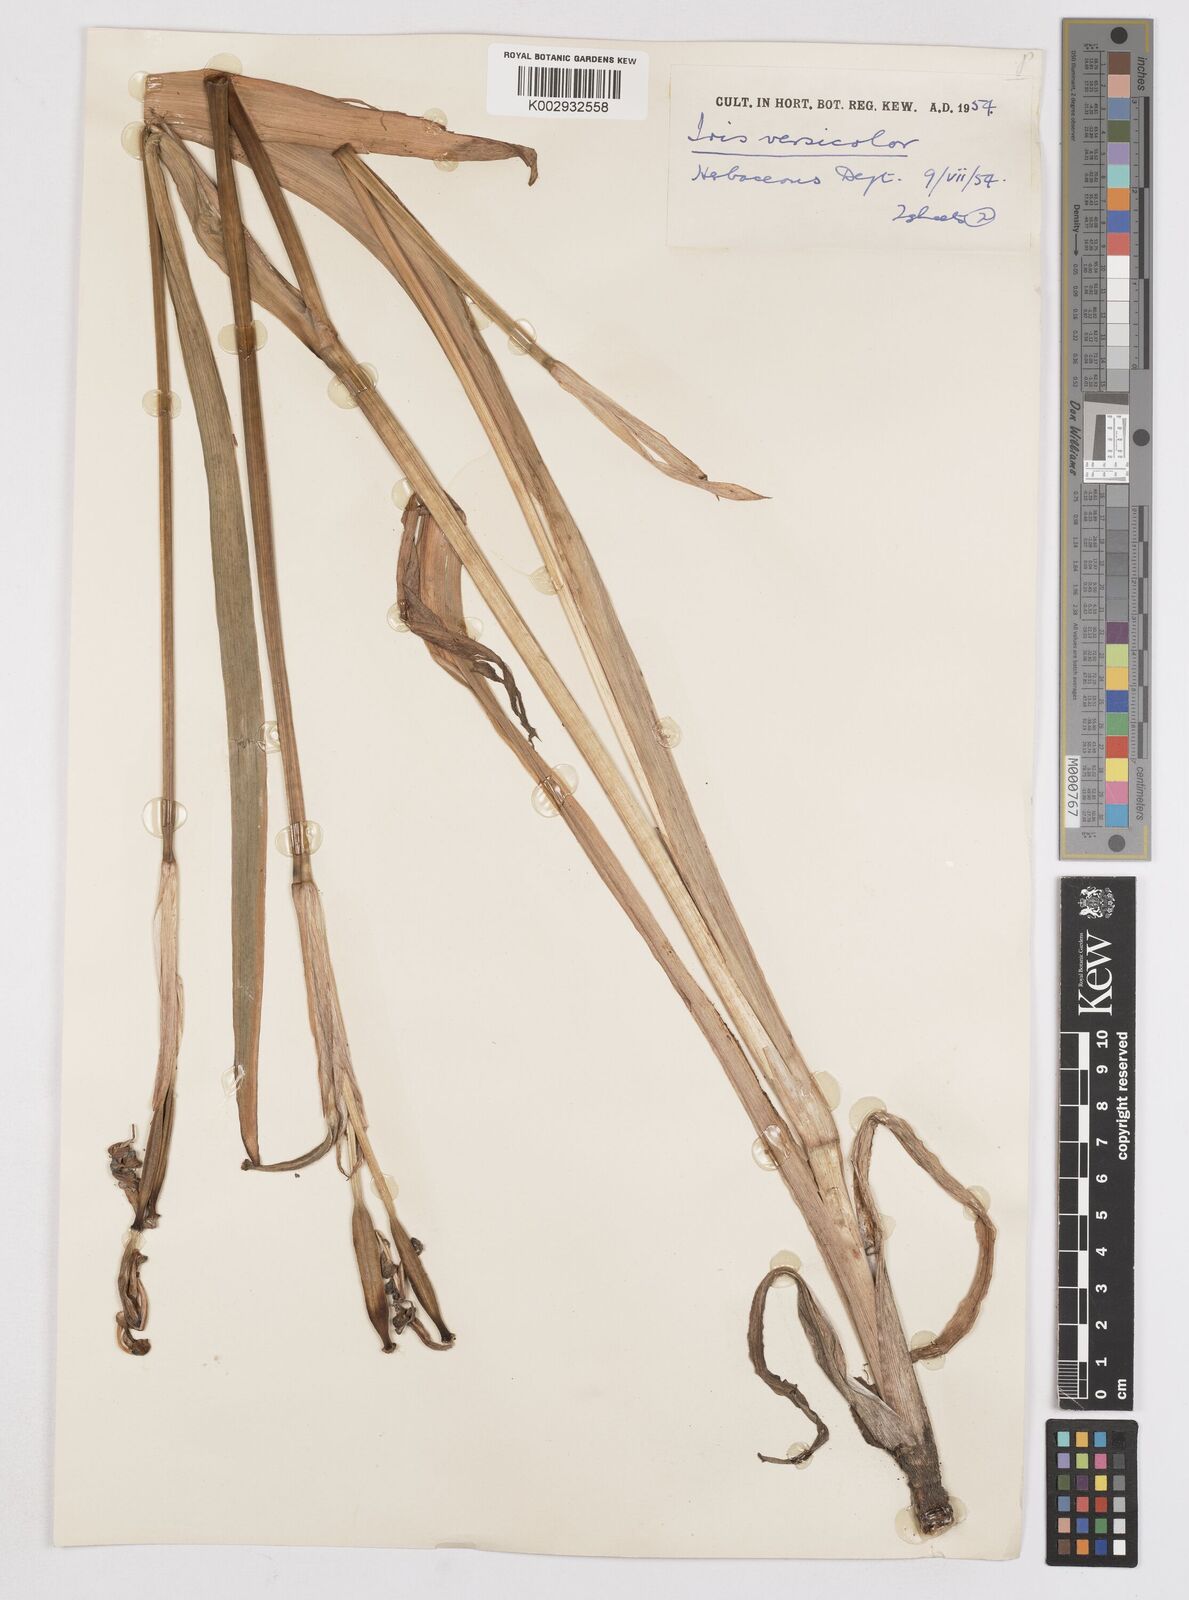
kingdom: Plantae
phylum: Tracheophyta
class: Liliopsida
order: Asparagales
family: Iridaceae
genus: Iris
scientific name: Iris versicolor
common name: Purple iris
